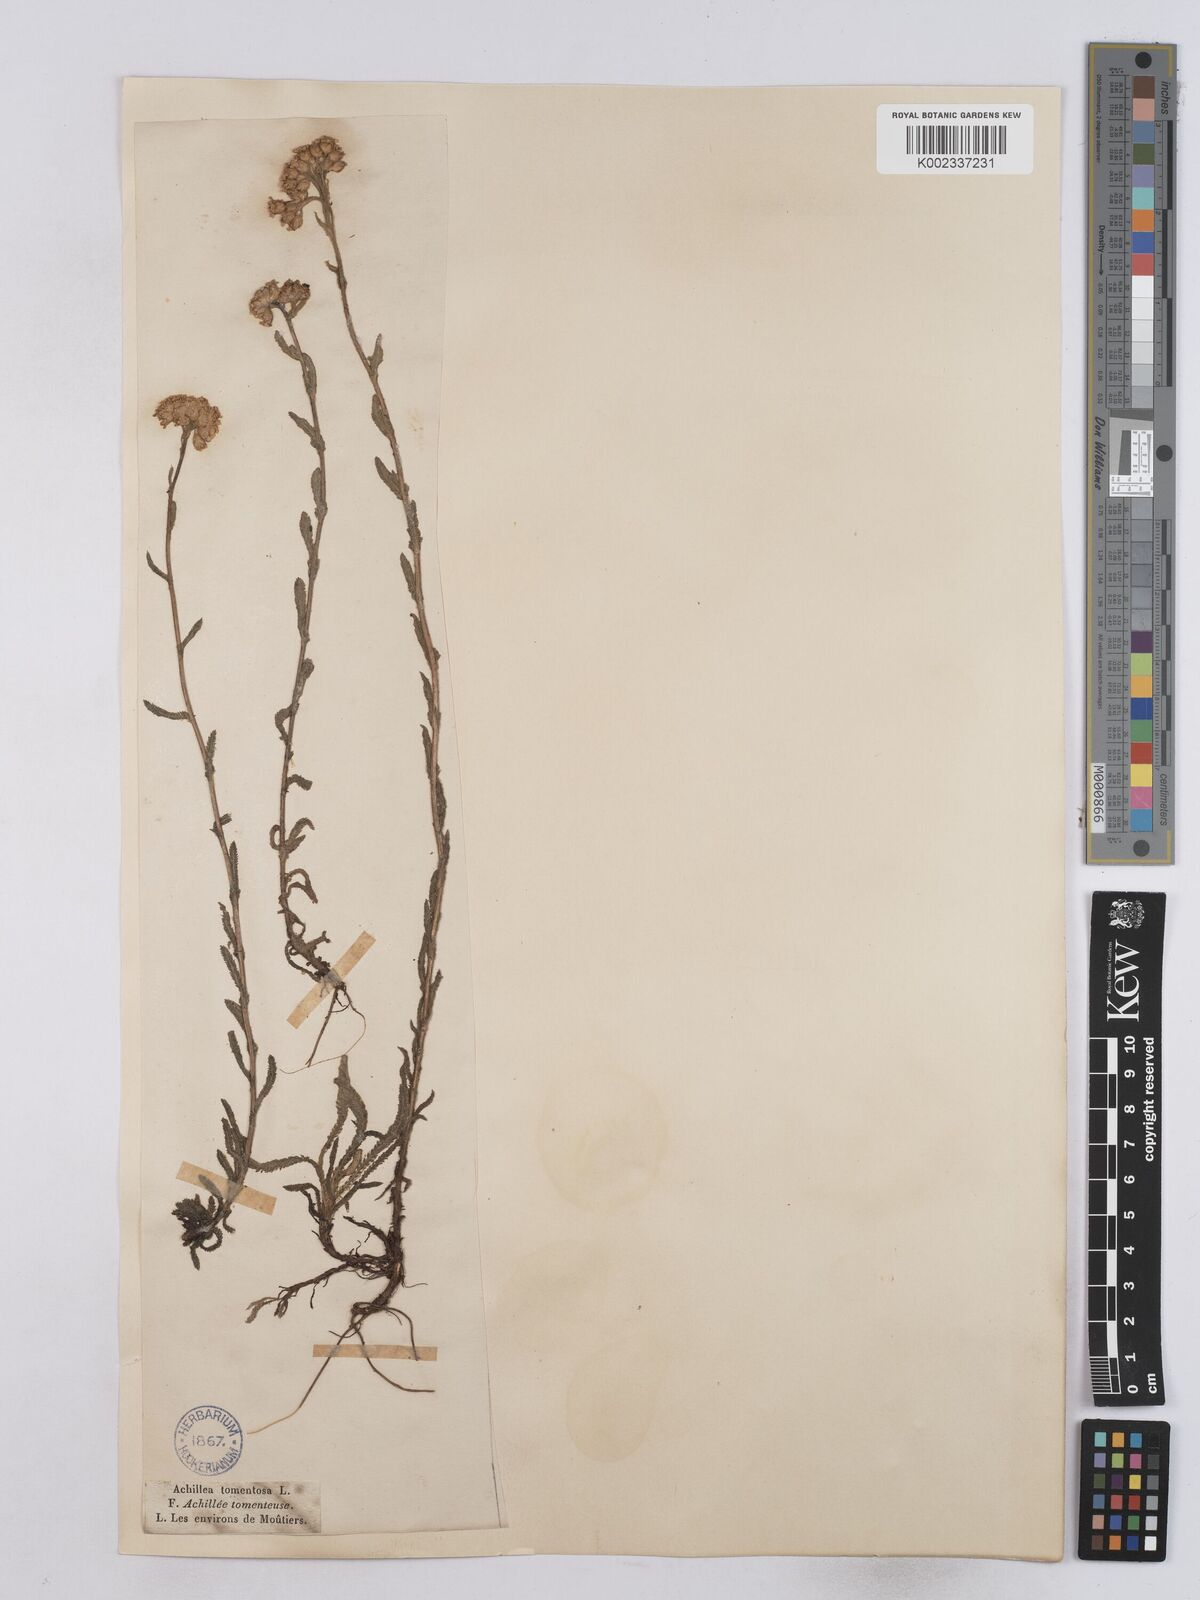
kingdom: Plantae
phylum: Tracheophyta
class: Magnoliopsida
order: Asterales
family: Asteraceae
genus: Achillea
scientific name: Achillea tomentosa
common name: Yellow milfoil
